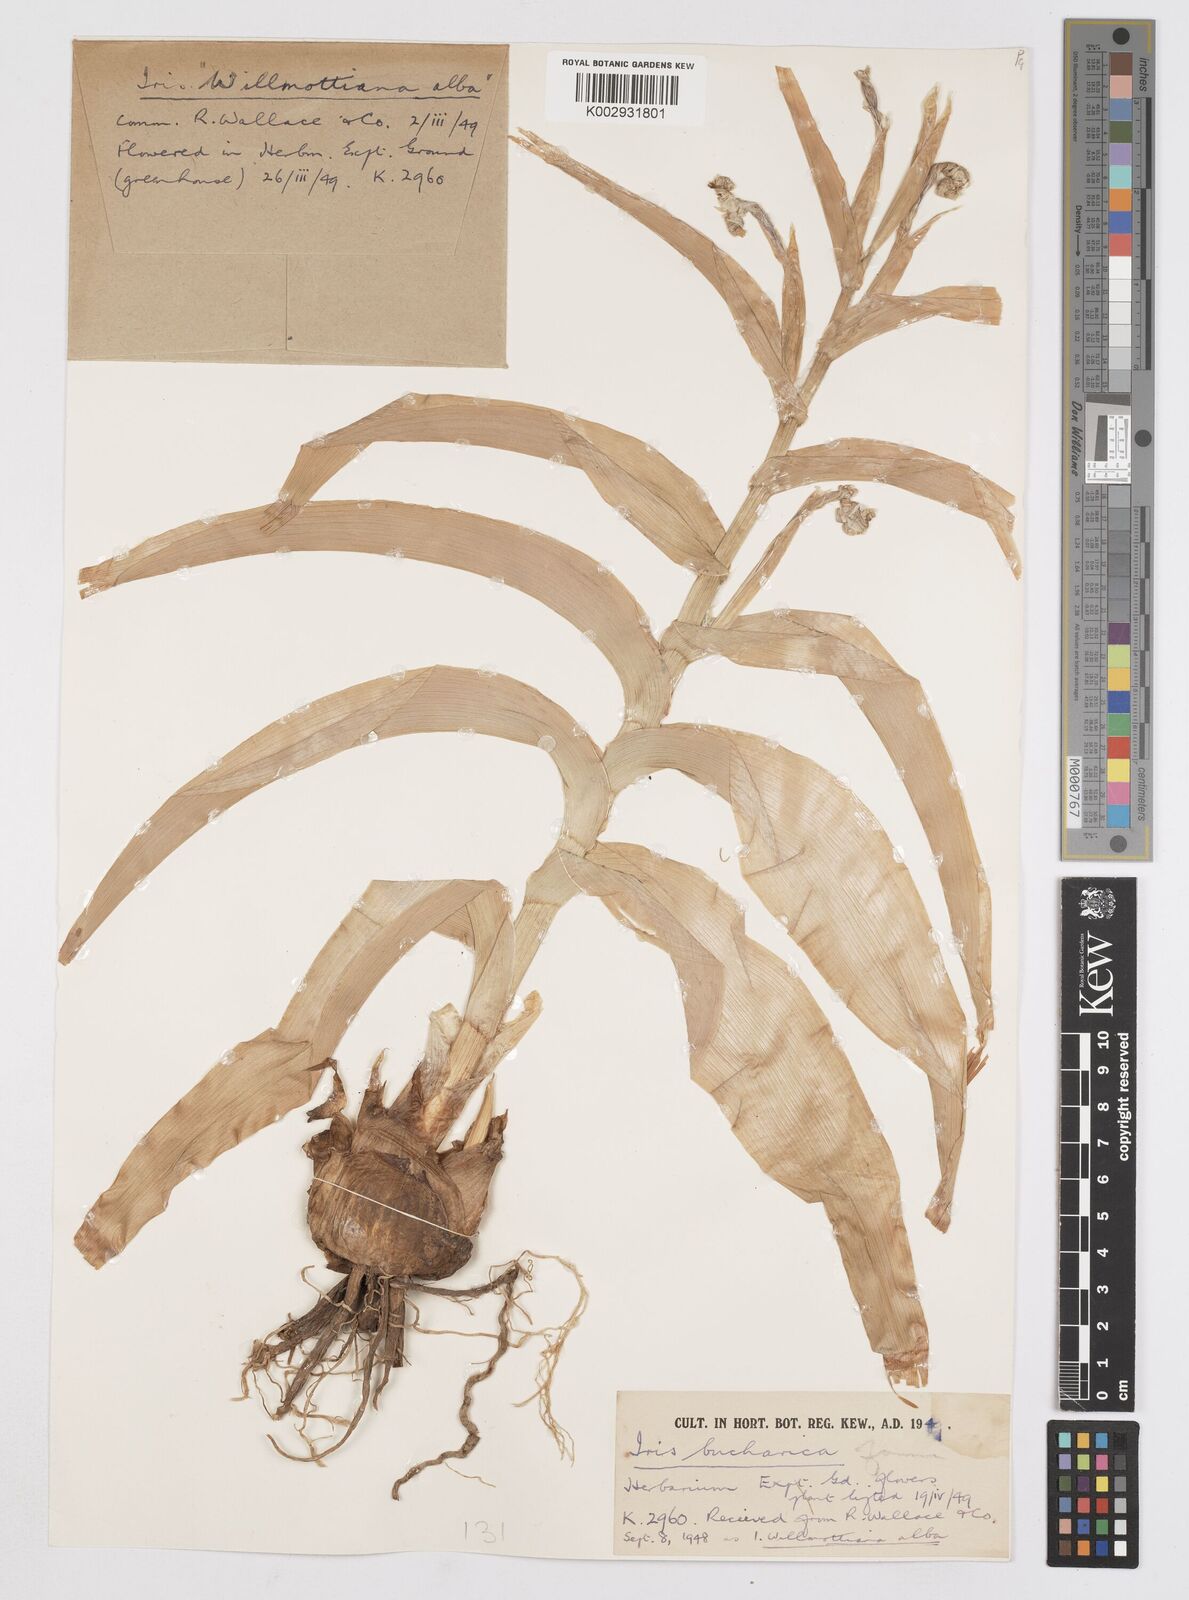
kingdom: Plantae
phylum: Tracheophyta
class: Liliopsida
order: Asparagales
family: Iridaceae
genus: Iris
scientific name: Iris bucharica
